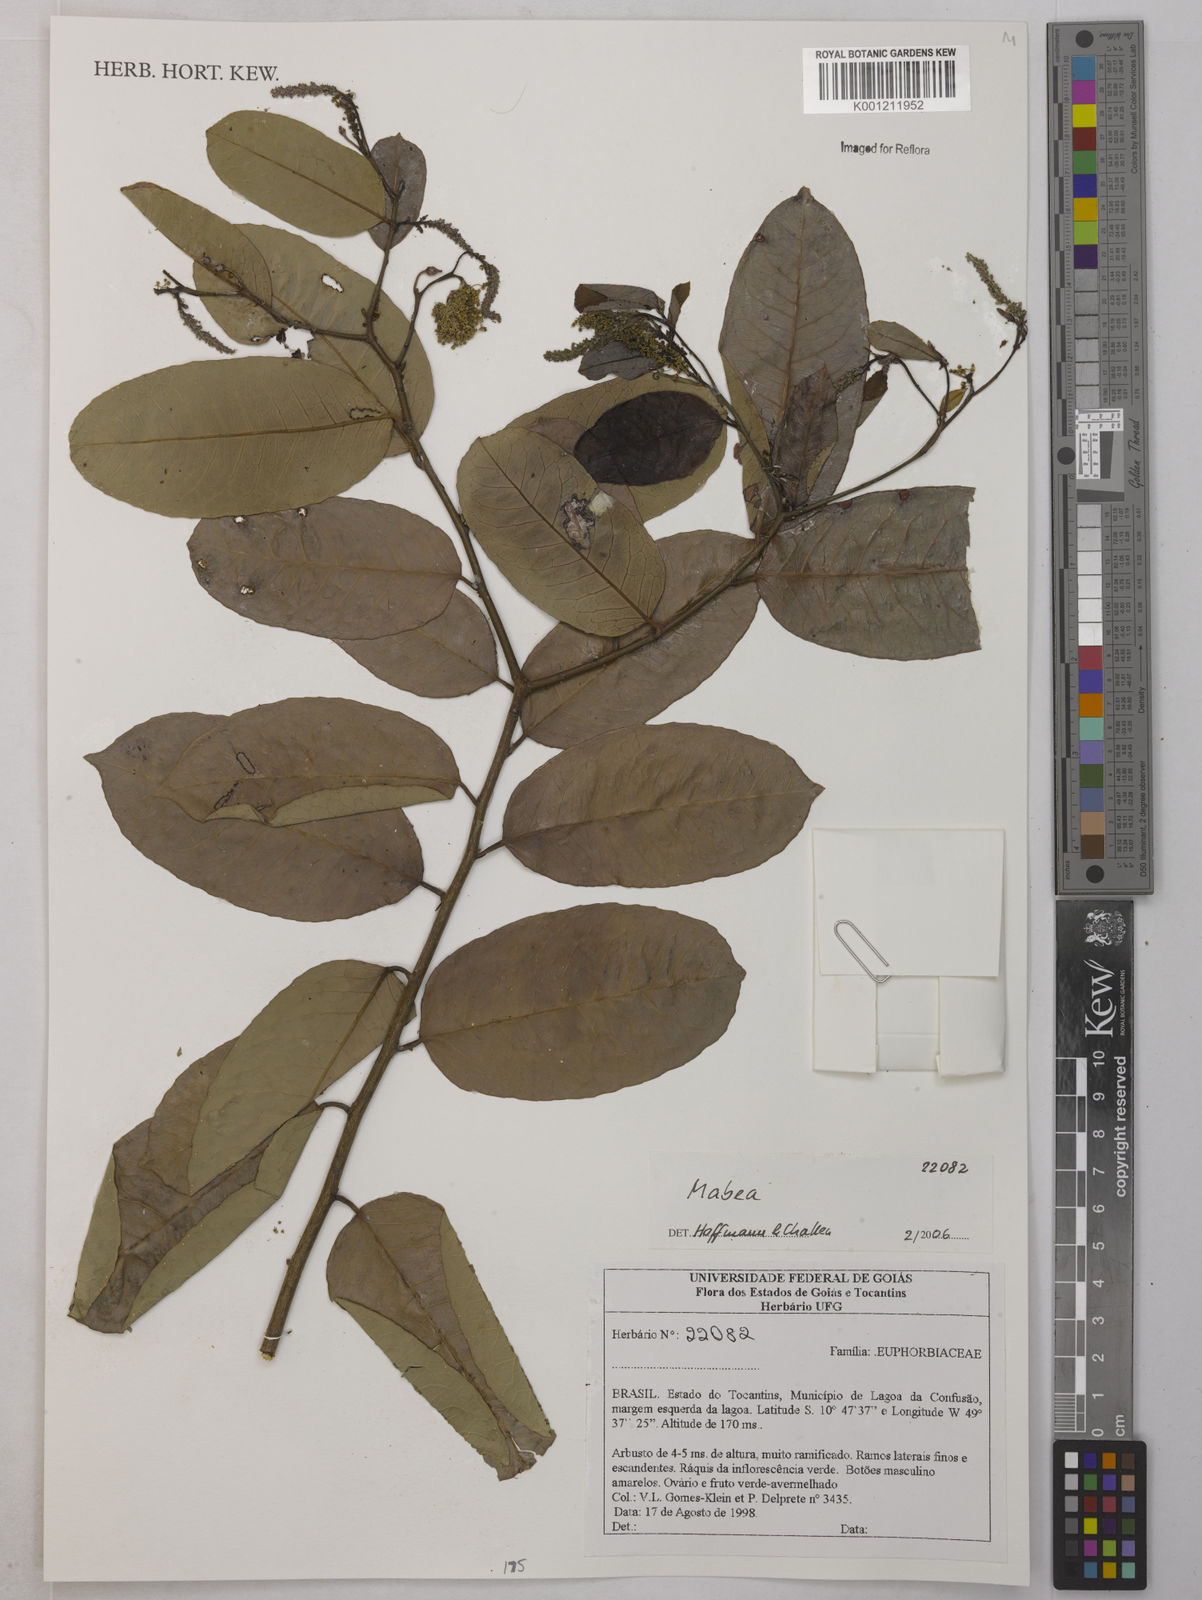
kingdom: Plantae
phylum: Tracheophyta
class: Magnoliopsida
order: Malpighiales
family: Euphorbiaceae
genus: Mabea
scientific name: Mabea
